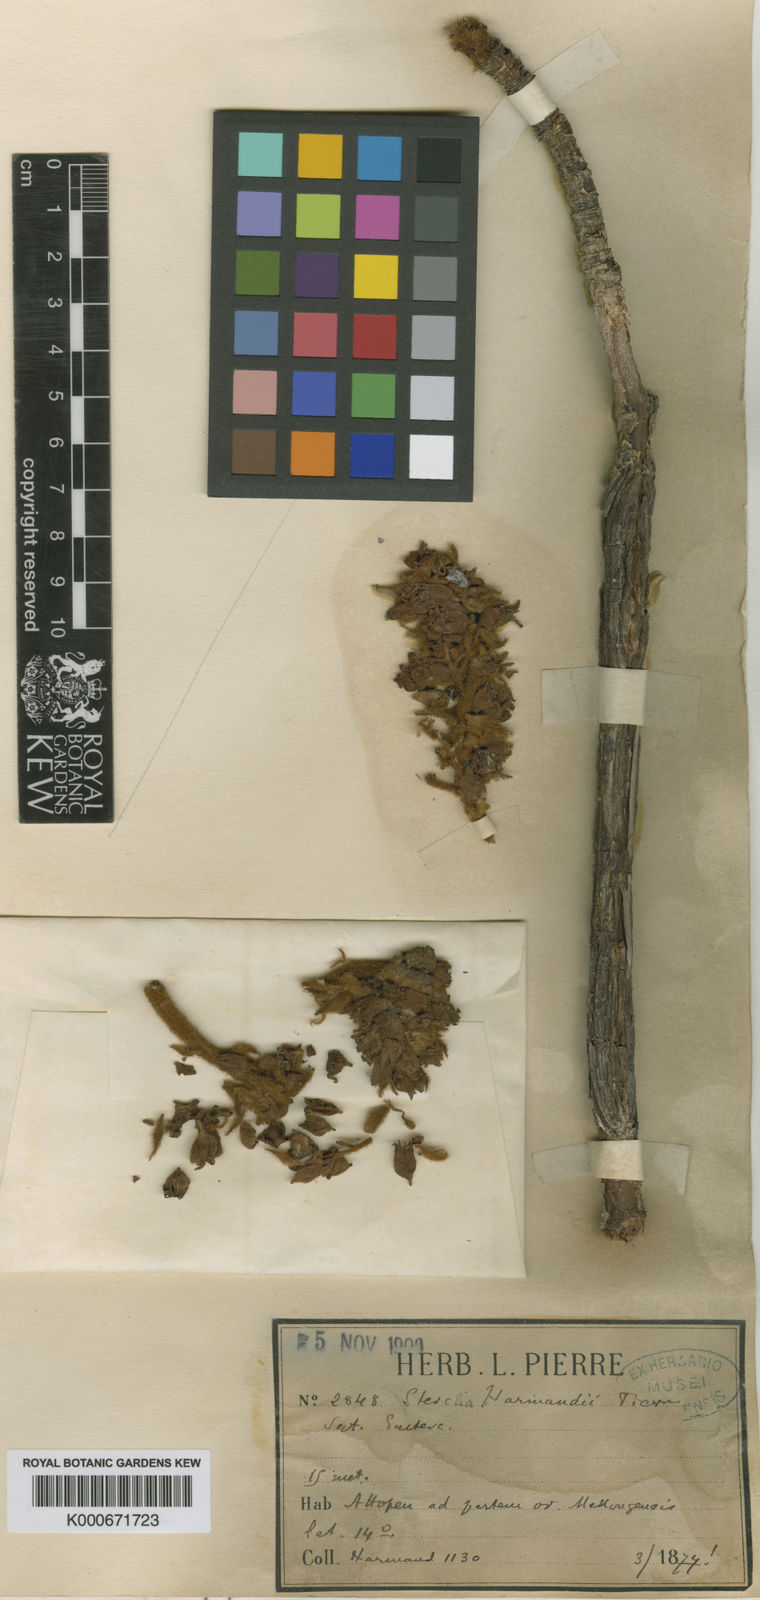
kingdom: Plantae
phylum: Tracheophyta
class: Magnoliopsida
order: Malvales
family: Malvaceae
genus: Sterculia
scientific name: Sterculia harmandii
